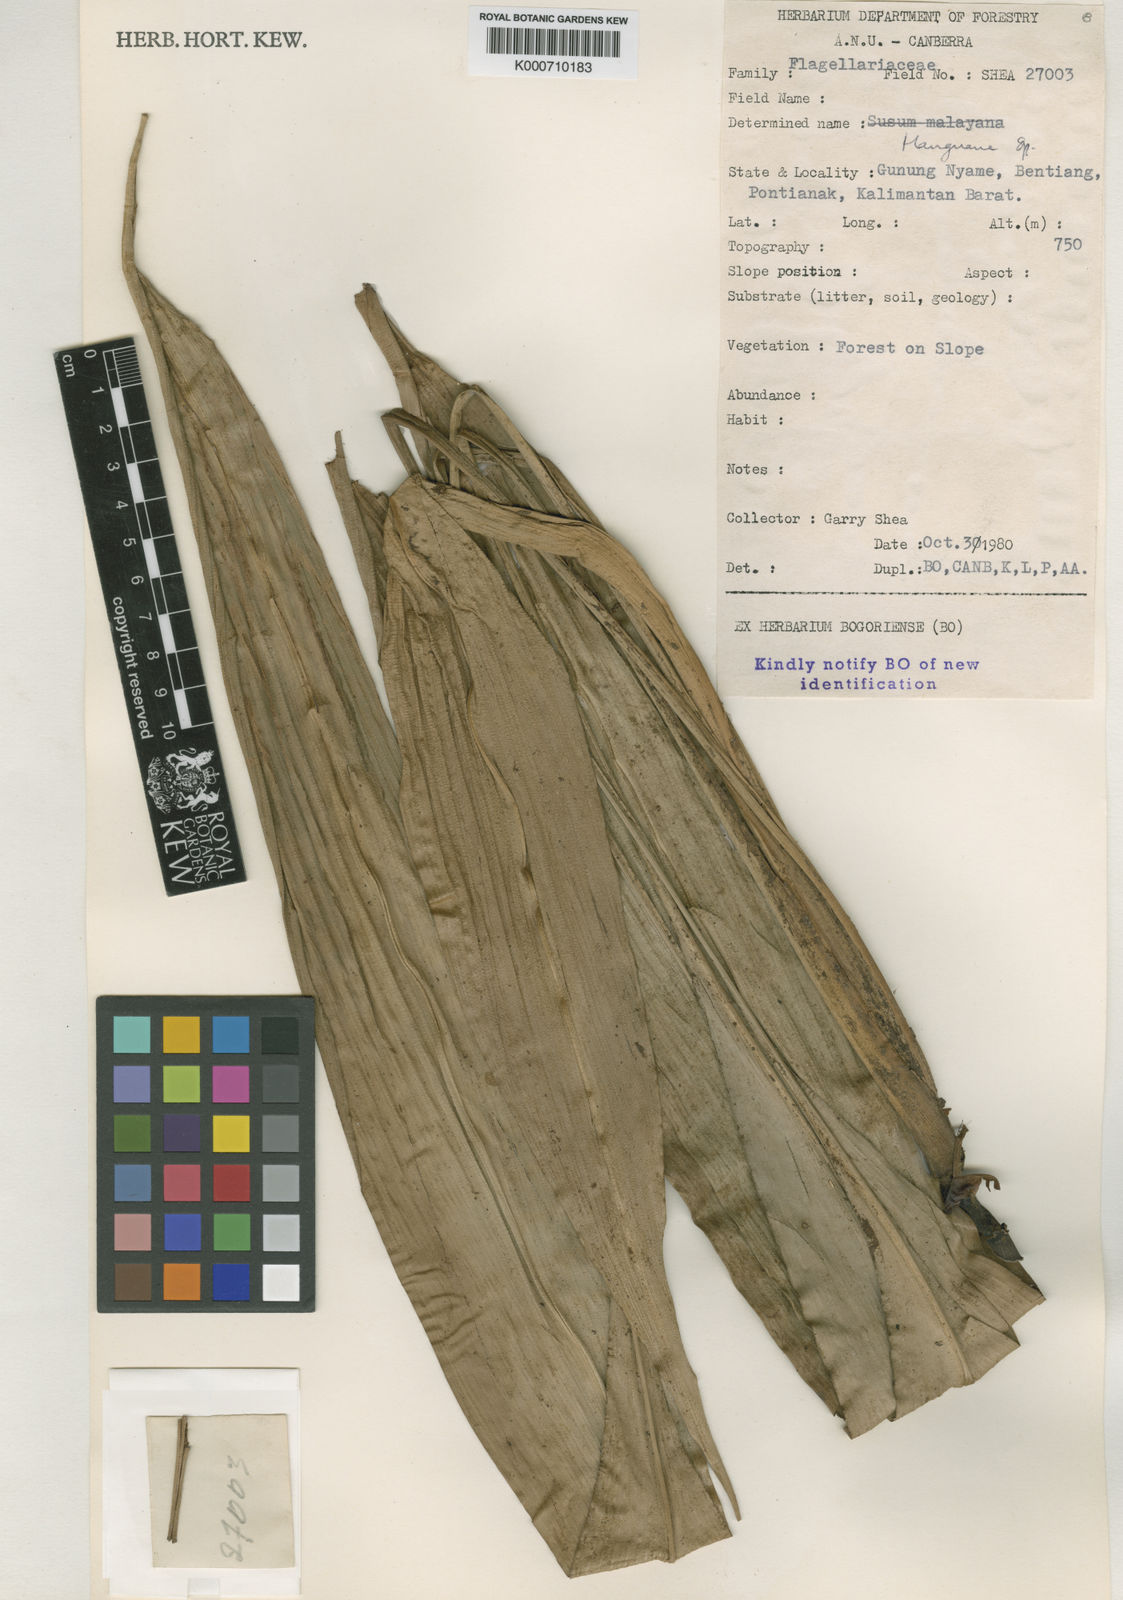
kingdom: Plantae
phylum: Tracheophyta
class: Liliopsida
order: Commelinales
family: Hanguanaceae
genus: Hanguana
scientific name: Hanguana
